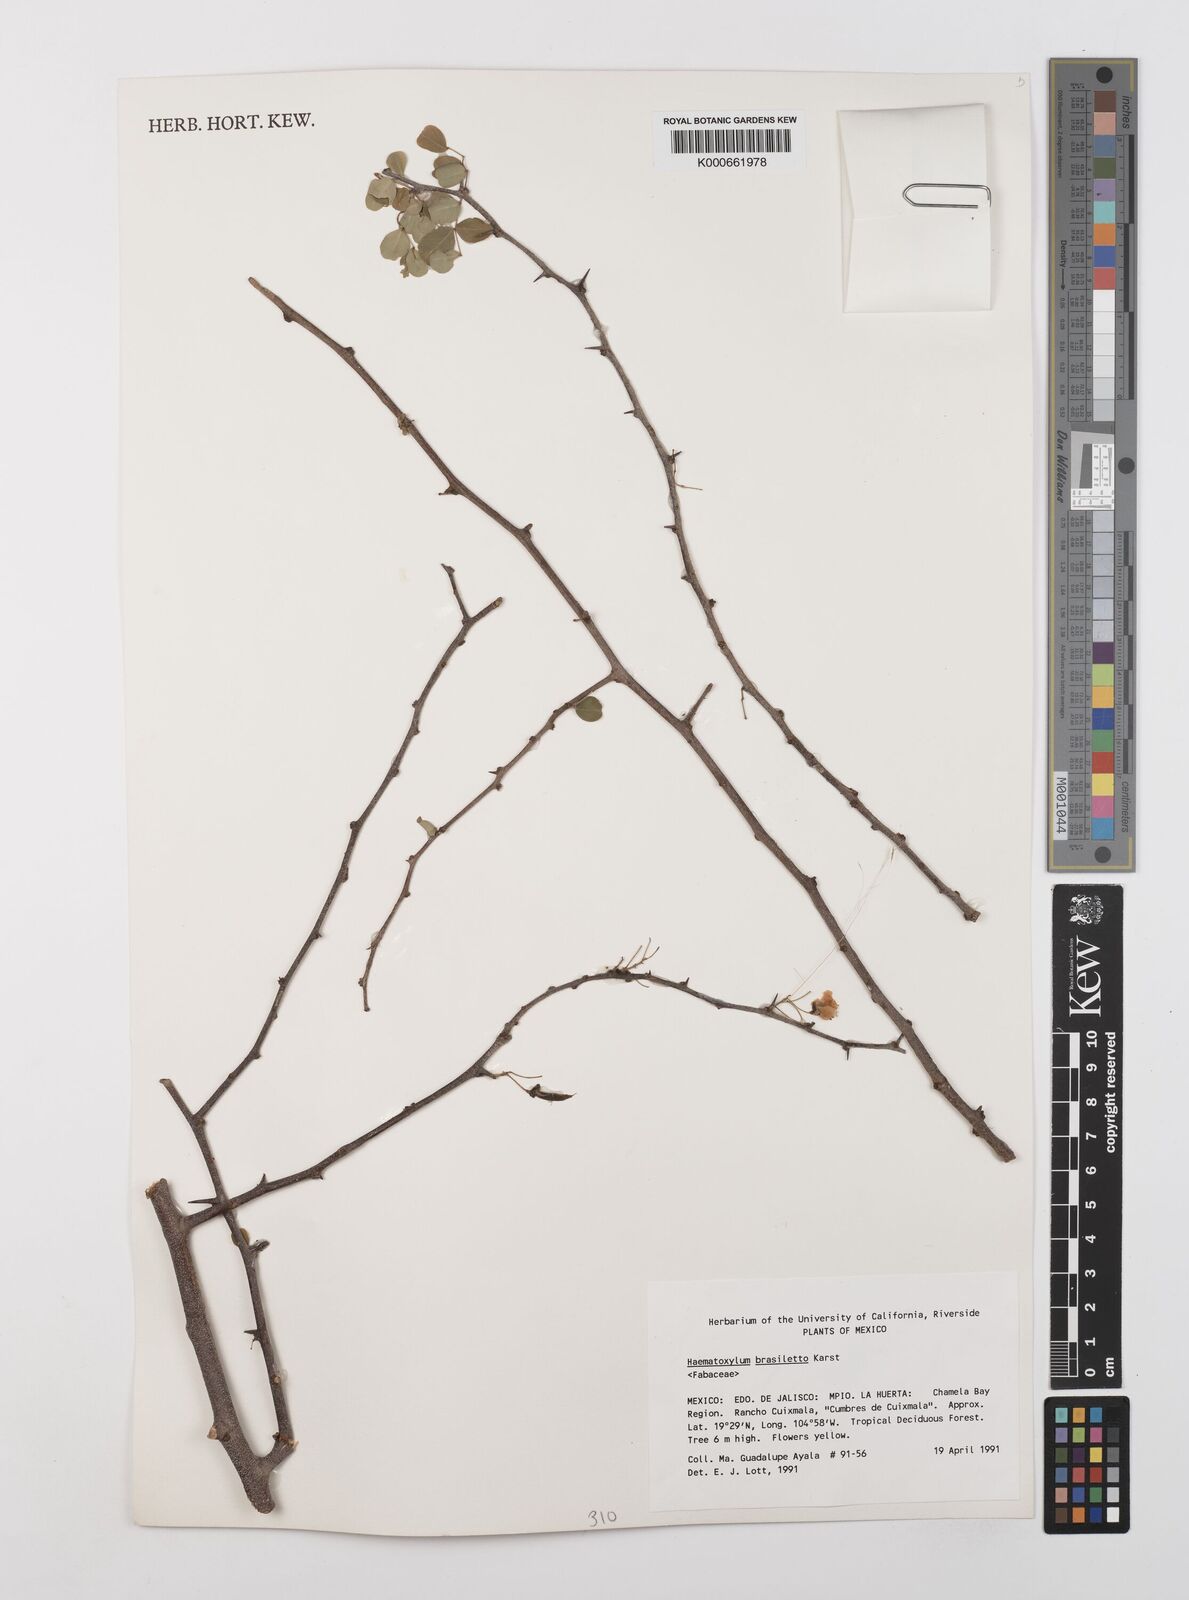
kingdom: Plantae
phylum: Tracheophyta
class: Magnoliopsida
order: Fabales
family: Fabaceae
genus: Haematoxylum
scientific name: Haematoxylum brasiletto
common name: Peachwood
